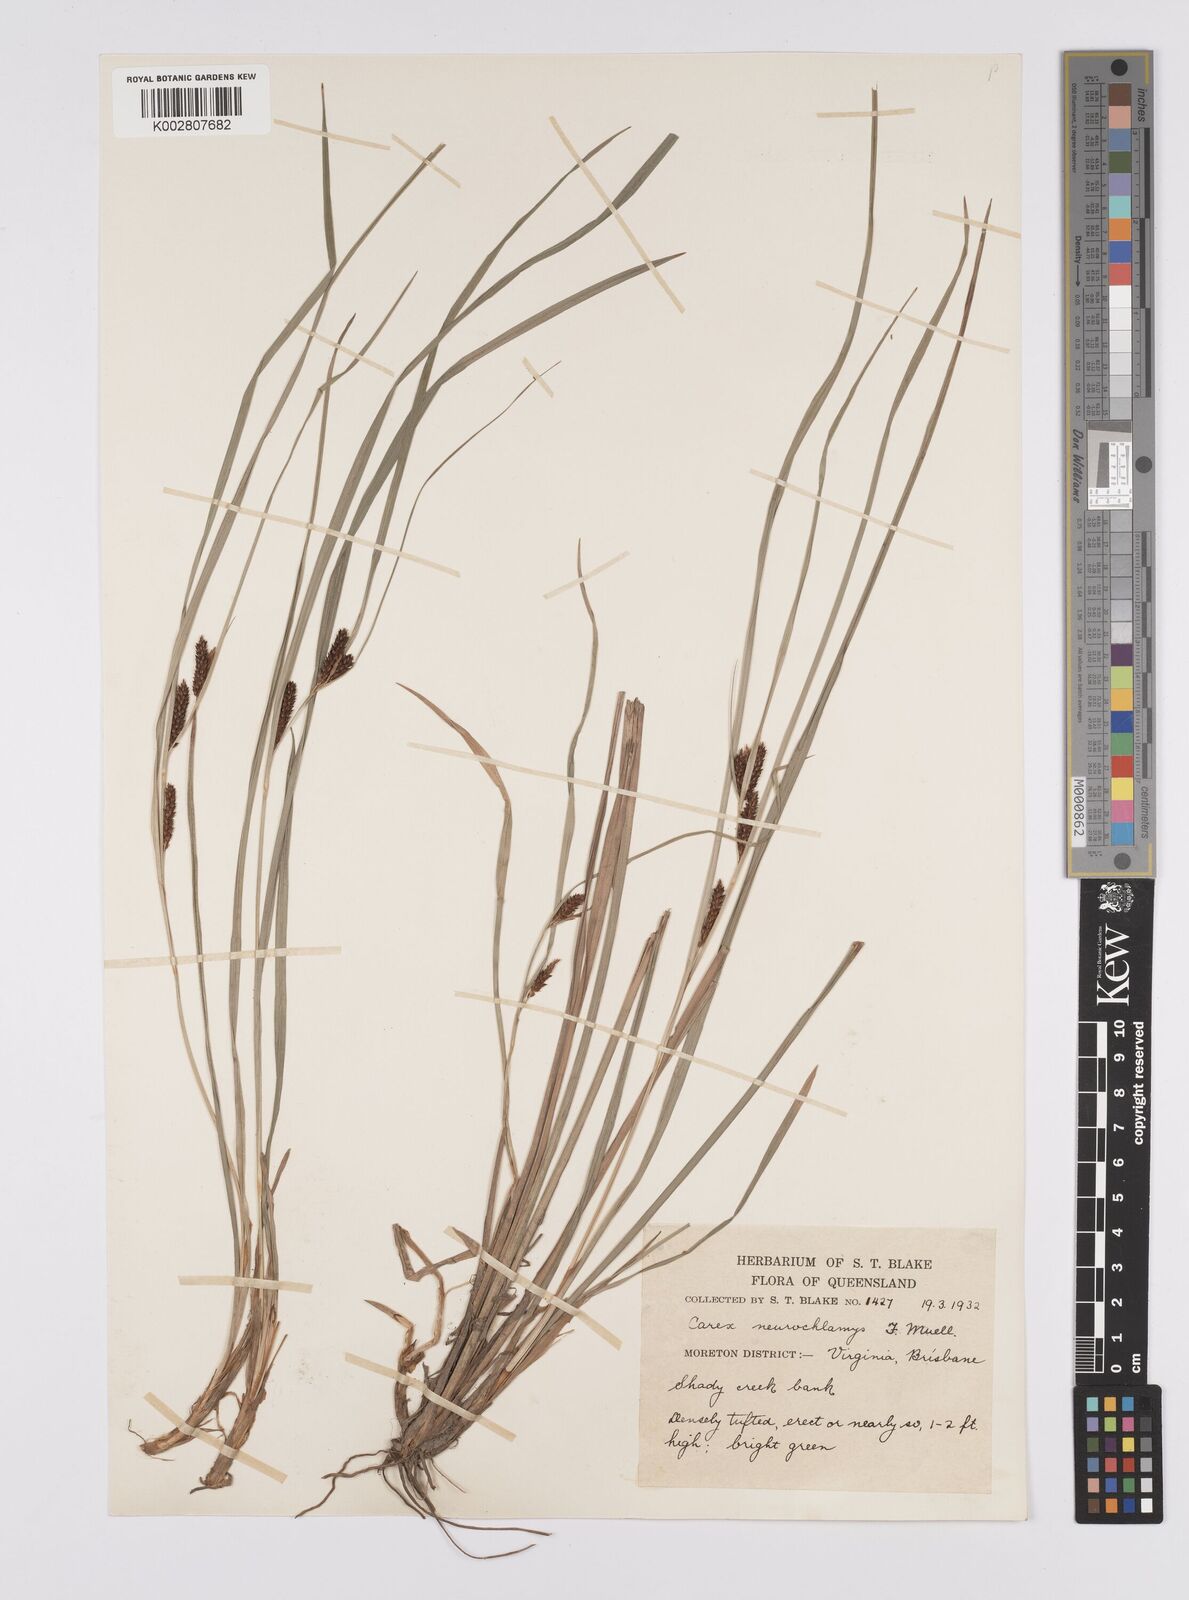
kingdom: Plantae
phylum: Tracheophyta
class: Liliopsida
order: Poales
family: Cyperaceae
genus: Carex
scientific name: Carex maculata
